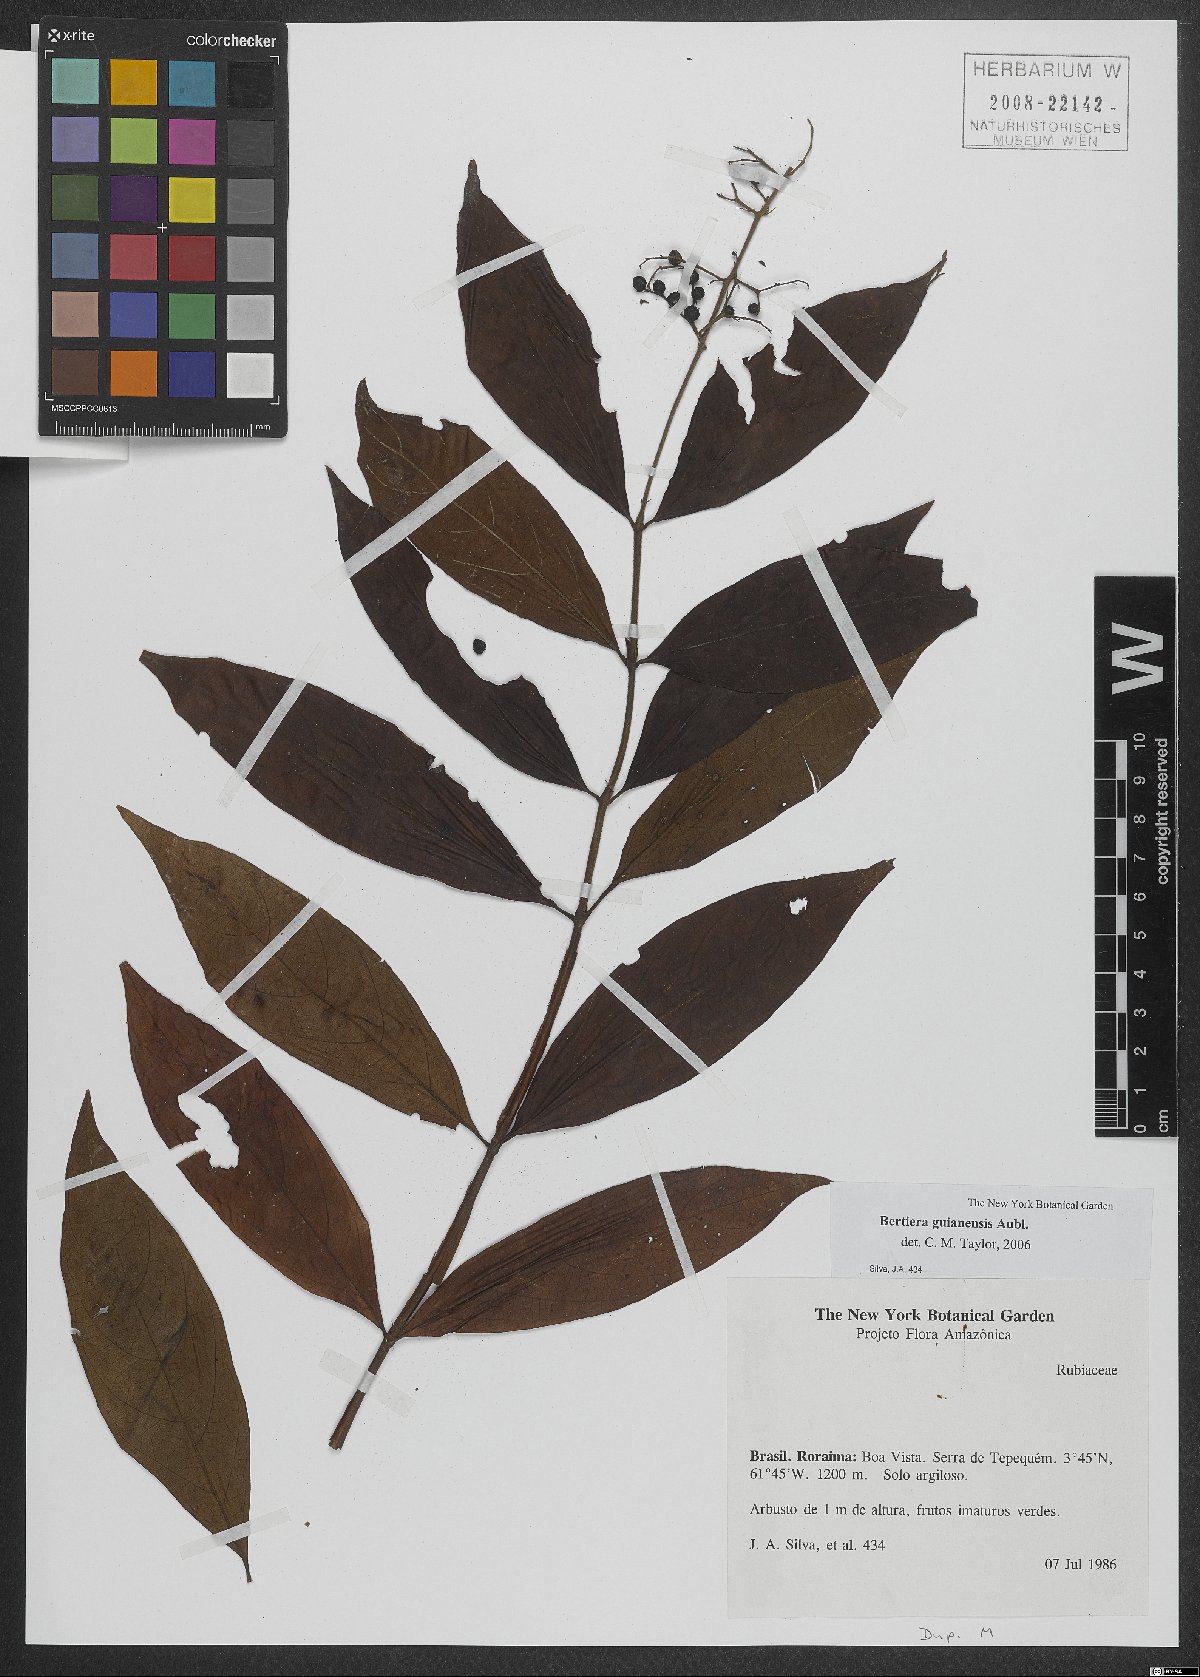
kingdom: Plantae
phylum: Tracheophyta
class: Magnoliopsida
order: Gentianales
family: Rubiaceae
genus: Bertiera
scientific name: Bertiera guianensis
